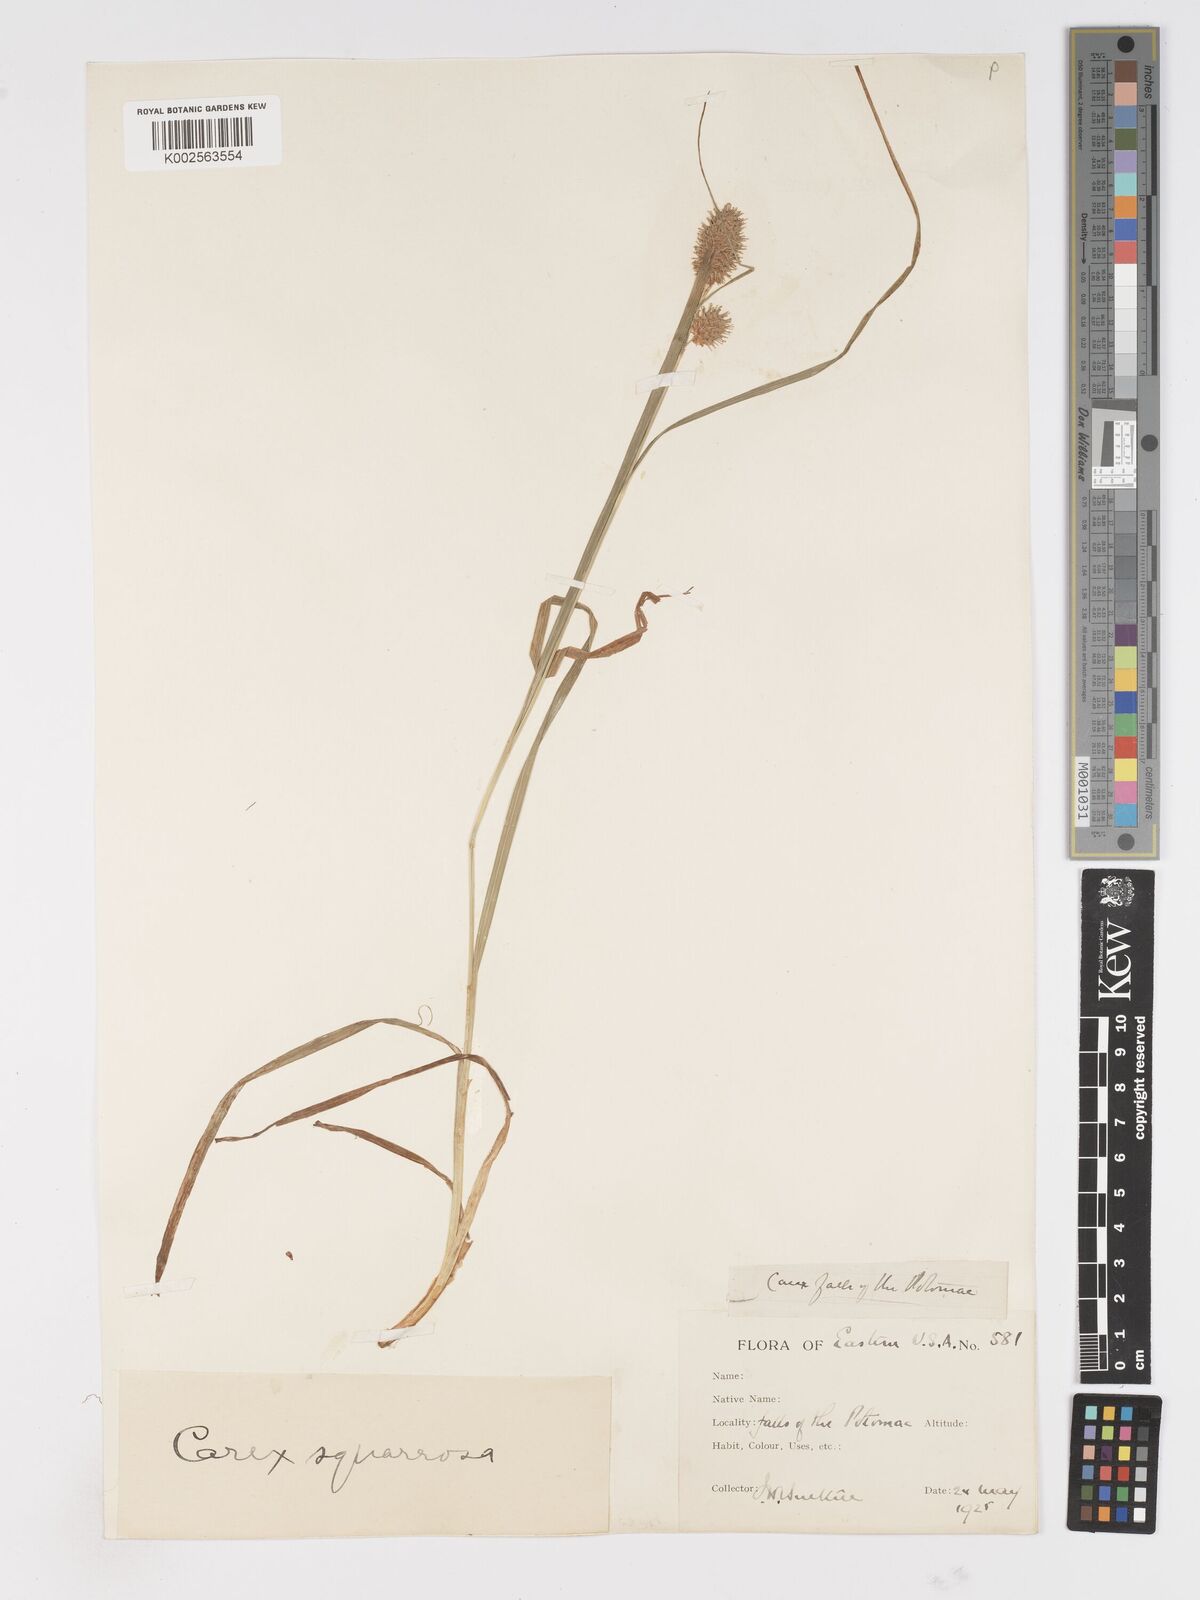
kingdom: Plantae
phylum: Tracheophyta
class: Liliopsida
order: Poales
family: Cyperaceae
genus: Carex
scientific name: Carex squarrosa
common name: Narrow-leaved cattail sedge
